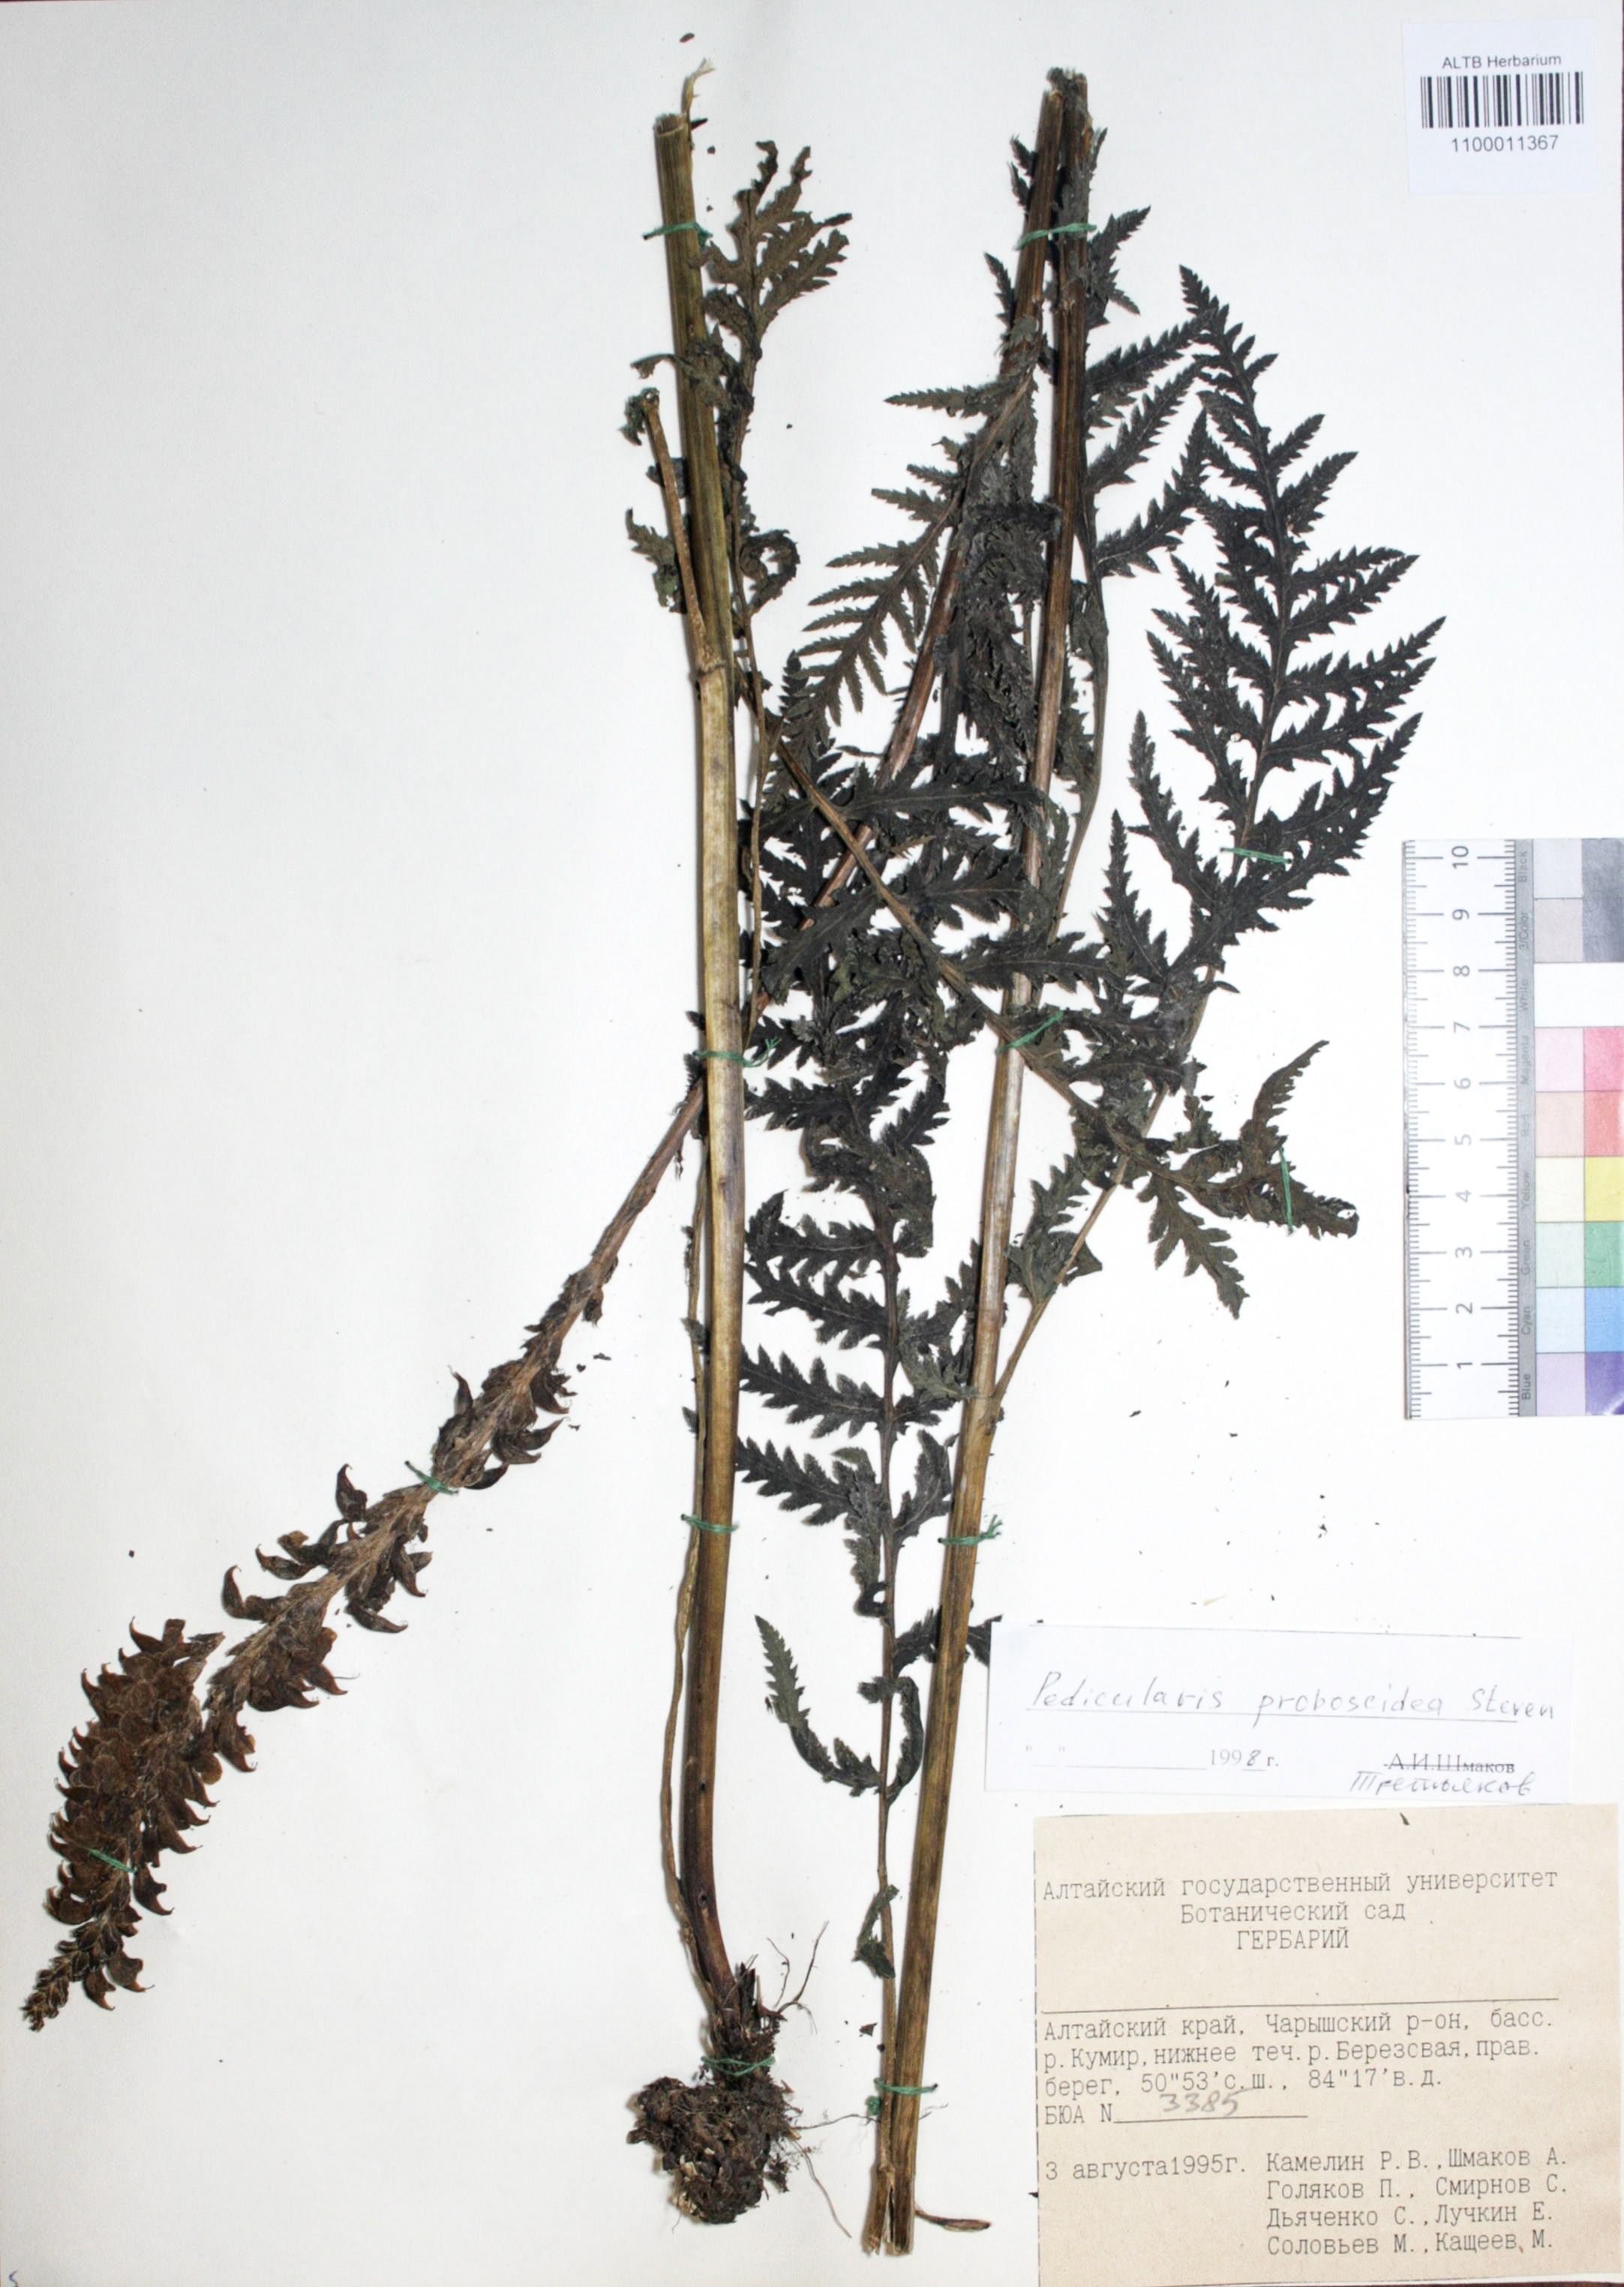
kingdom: Plantae
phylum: Tracheophyta
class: Magnoliopsida
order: Lamiales
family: Orobanchaceae
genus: Pedicularis
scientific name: Pedicularis proboscidea
